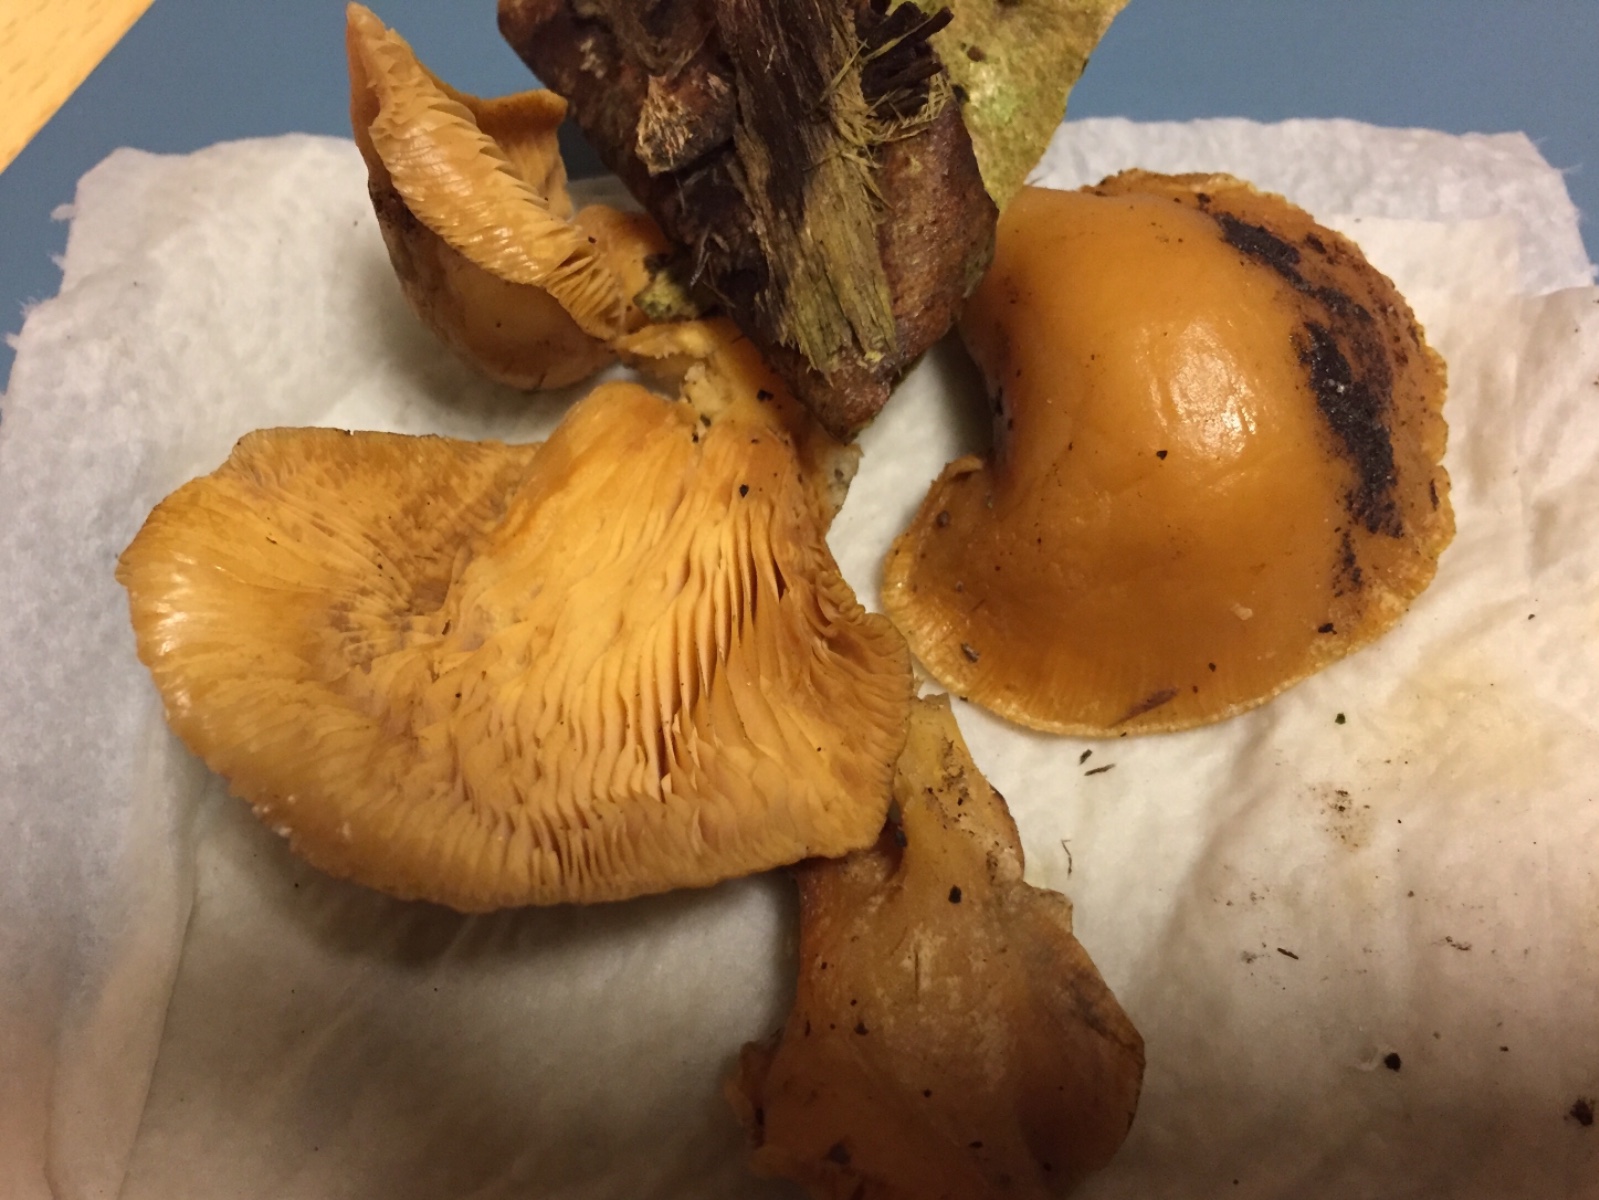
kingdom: Fungi
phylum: Basidiomycota
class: Agaricomycetes
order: Agaricales
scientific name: Agaricales
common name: champignonordenen
